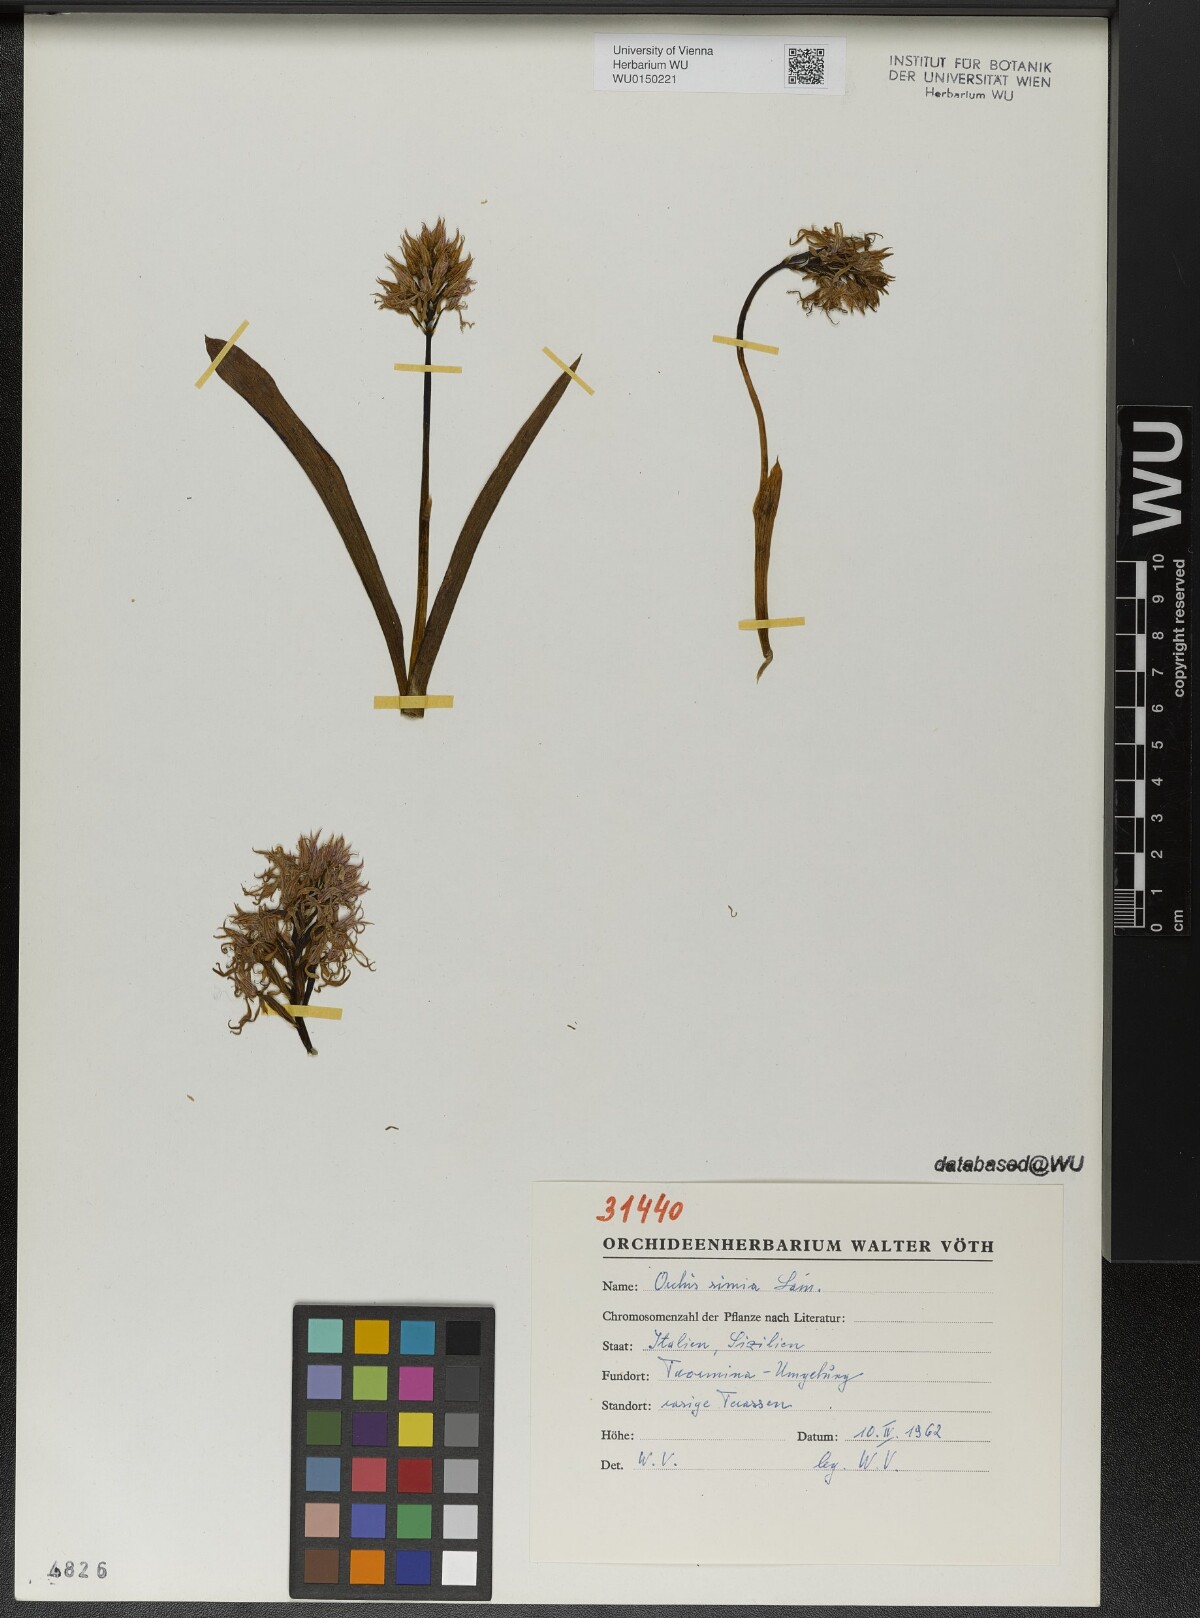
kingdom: Plantae
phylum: Tracheophyta
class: Liliopsida
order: Asparagales
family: Orchidaceae
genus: Orchis
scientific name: Orchis simia
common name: Monkey orchid
